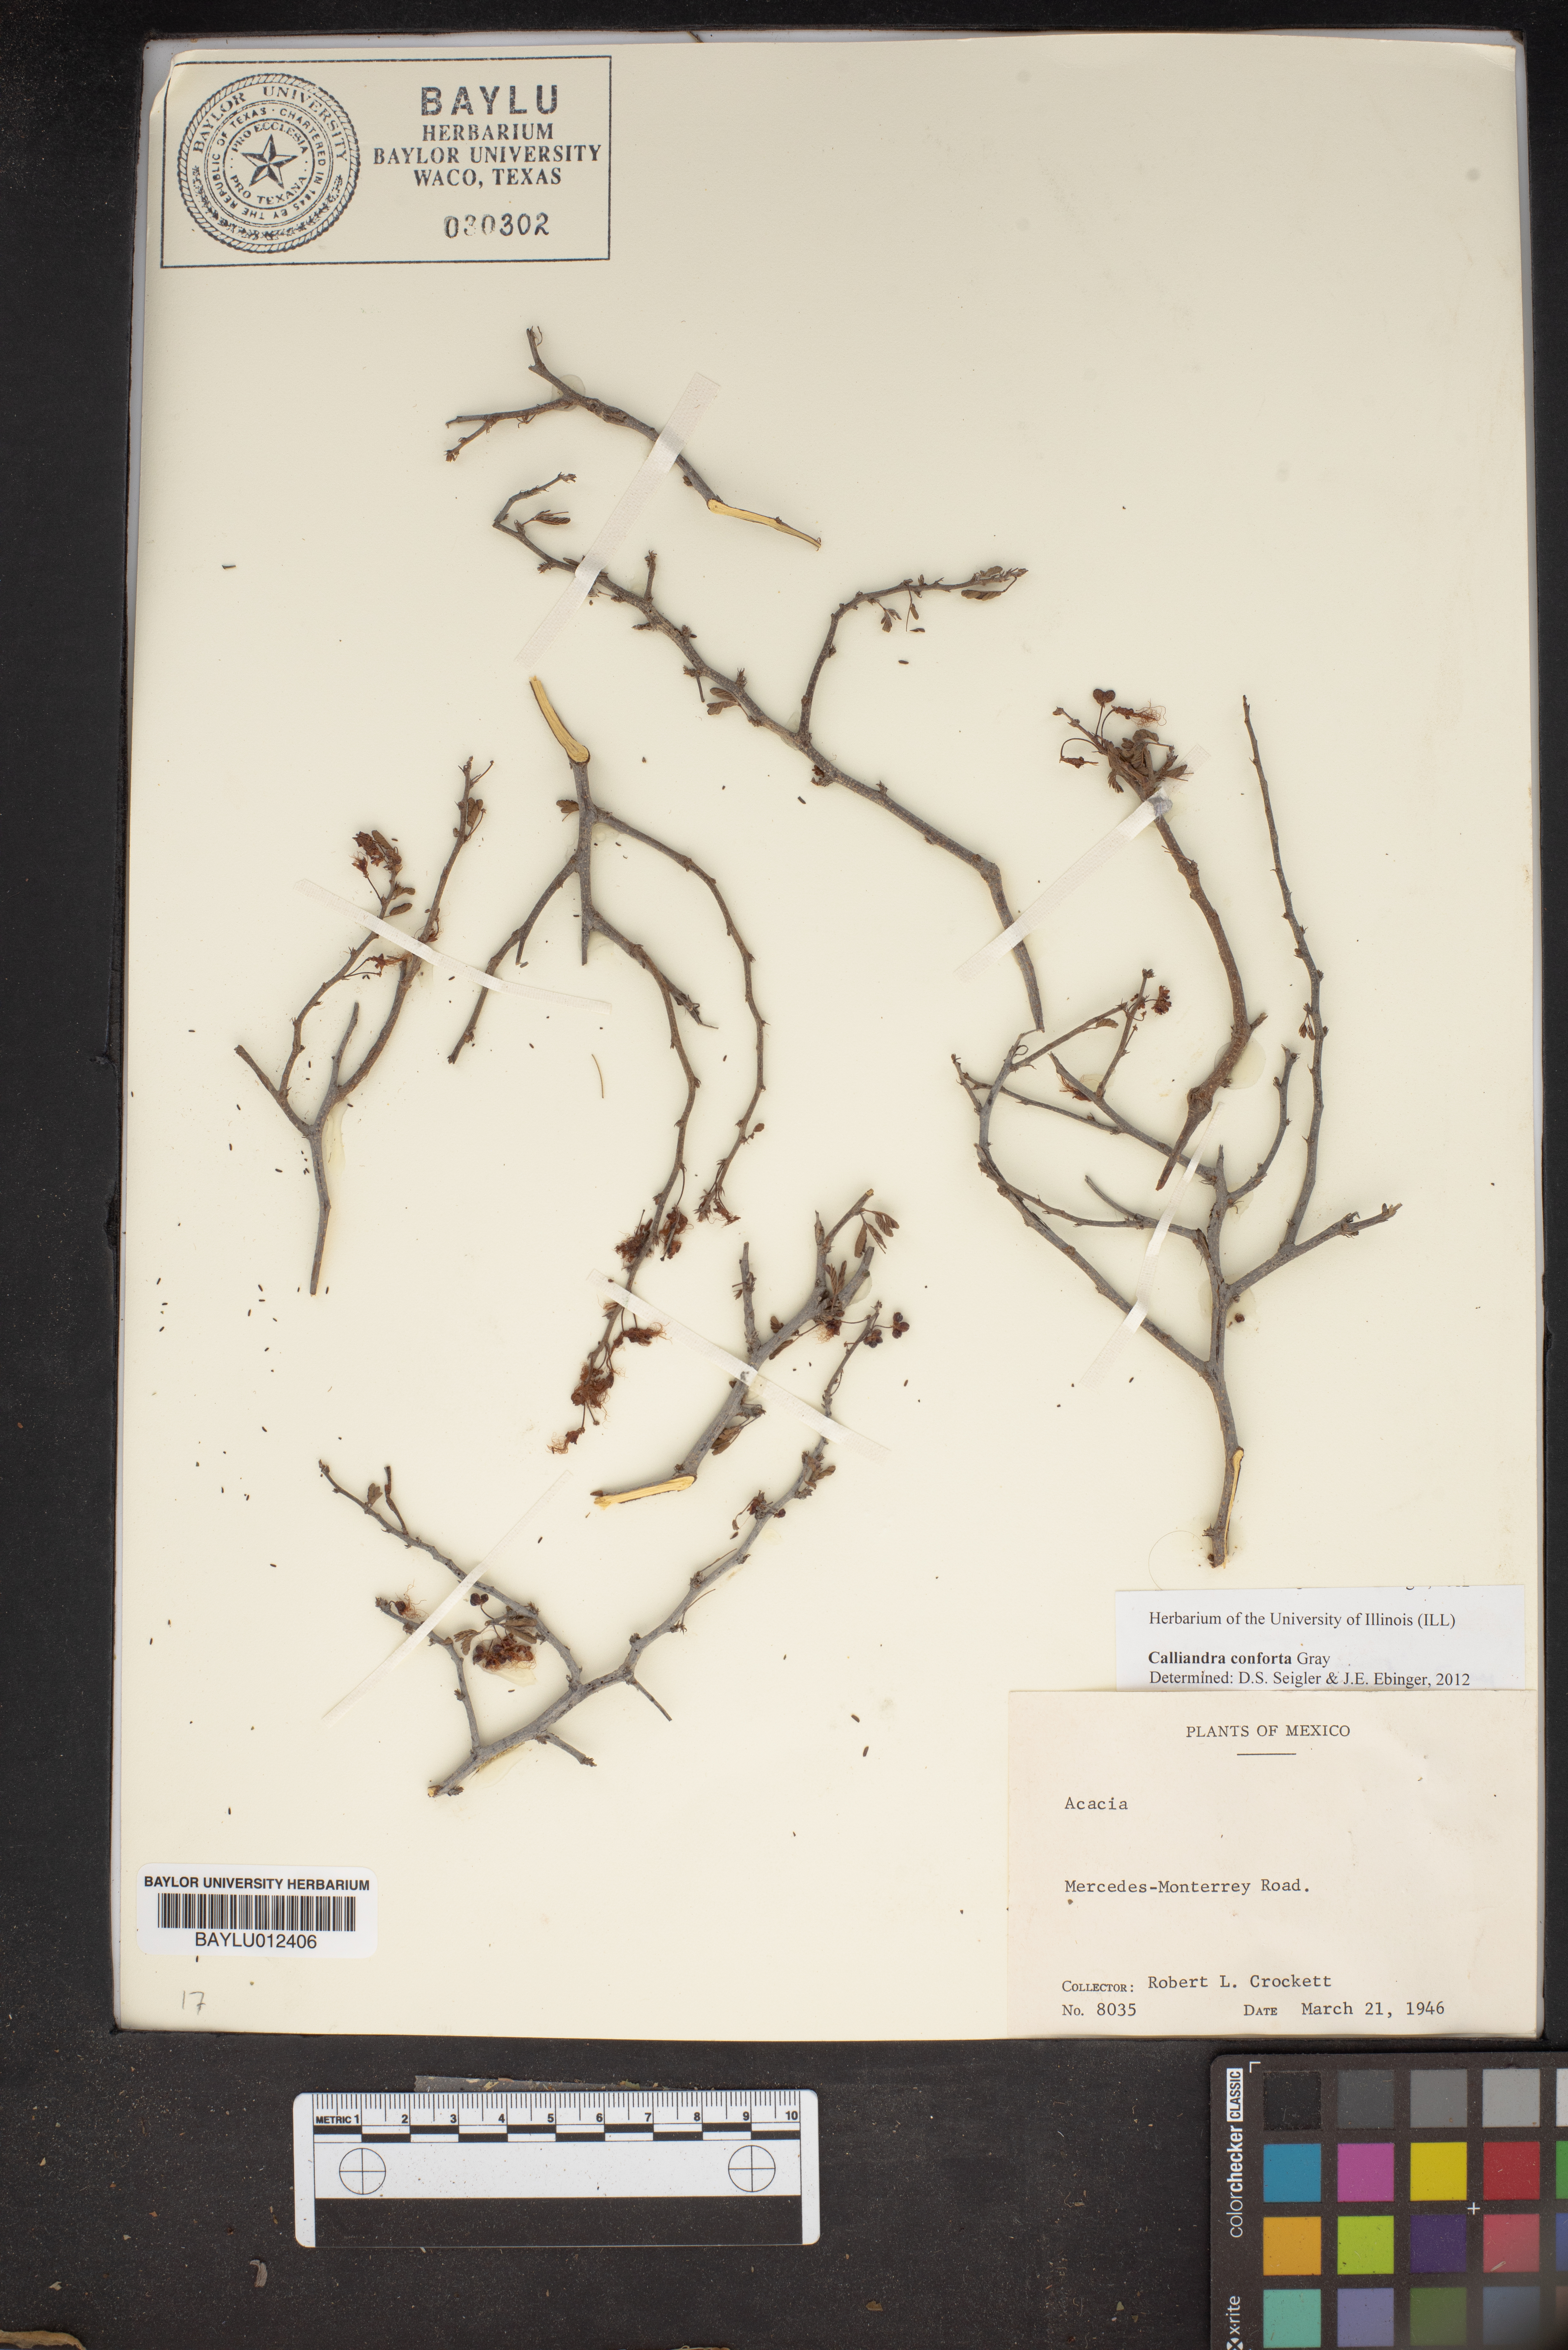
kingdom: Plantae
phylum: Tracheophyta
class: Magnoliopsida
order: Fabales
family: Fabaceae
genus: Calliandra
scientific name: Calliandra conferta
